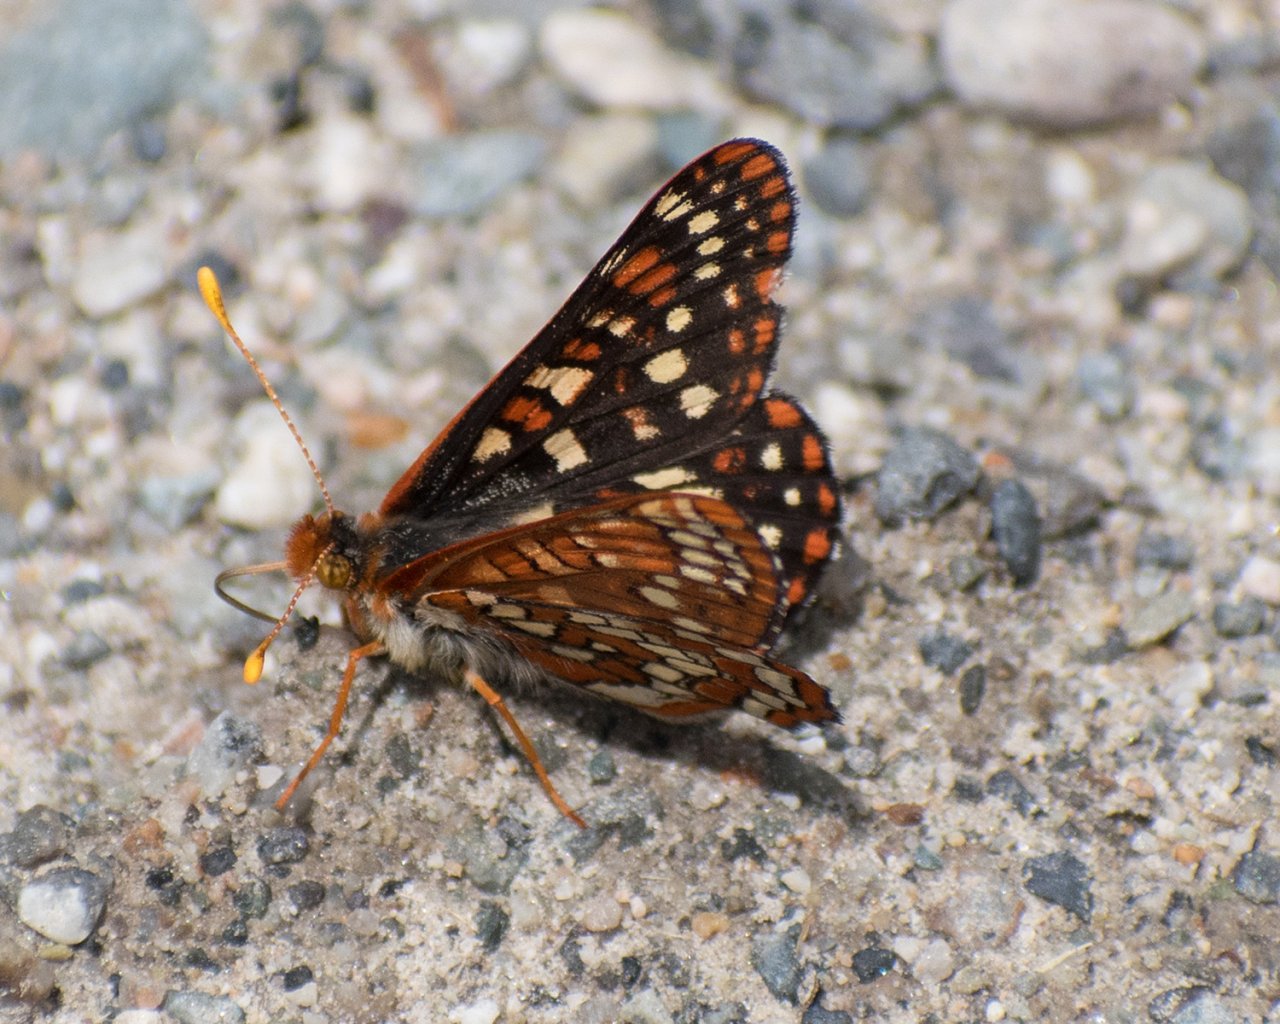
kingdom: Animalia
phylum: Arthropoda
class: Insecta
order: Lepidoptera
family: Nymphalidae
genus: Occidryas
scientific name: Occidryas anicia
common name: Anicia Checkerspot
